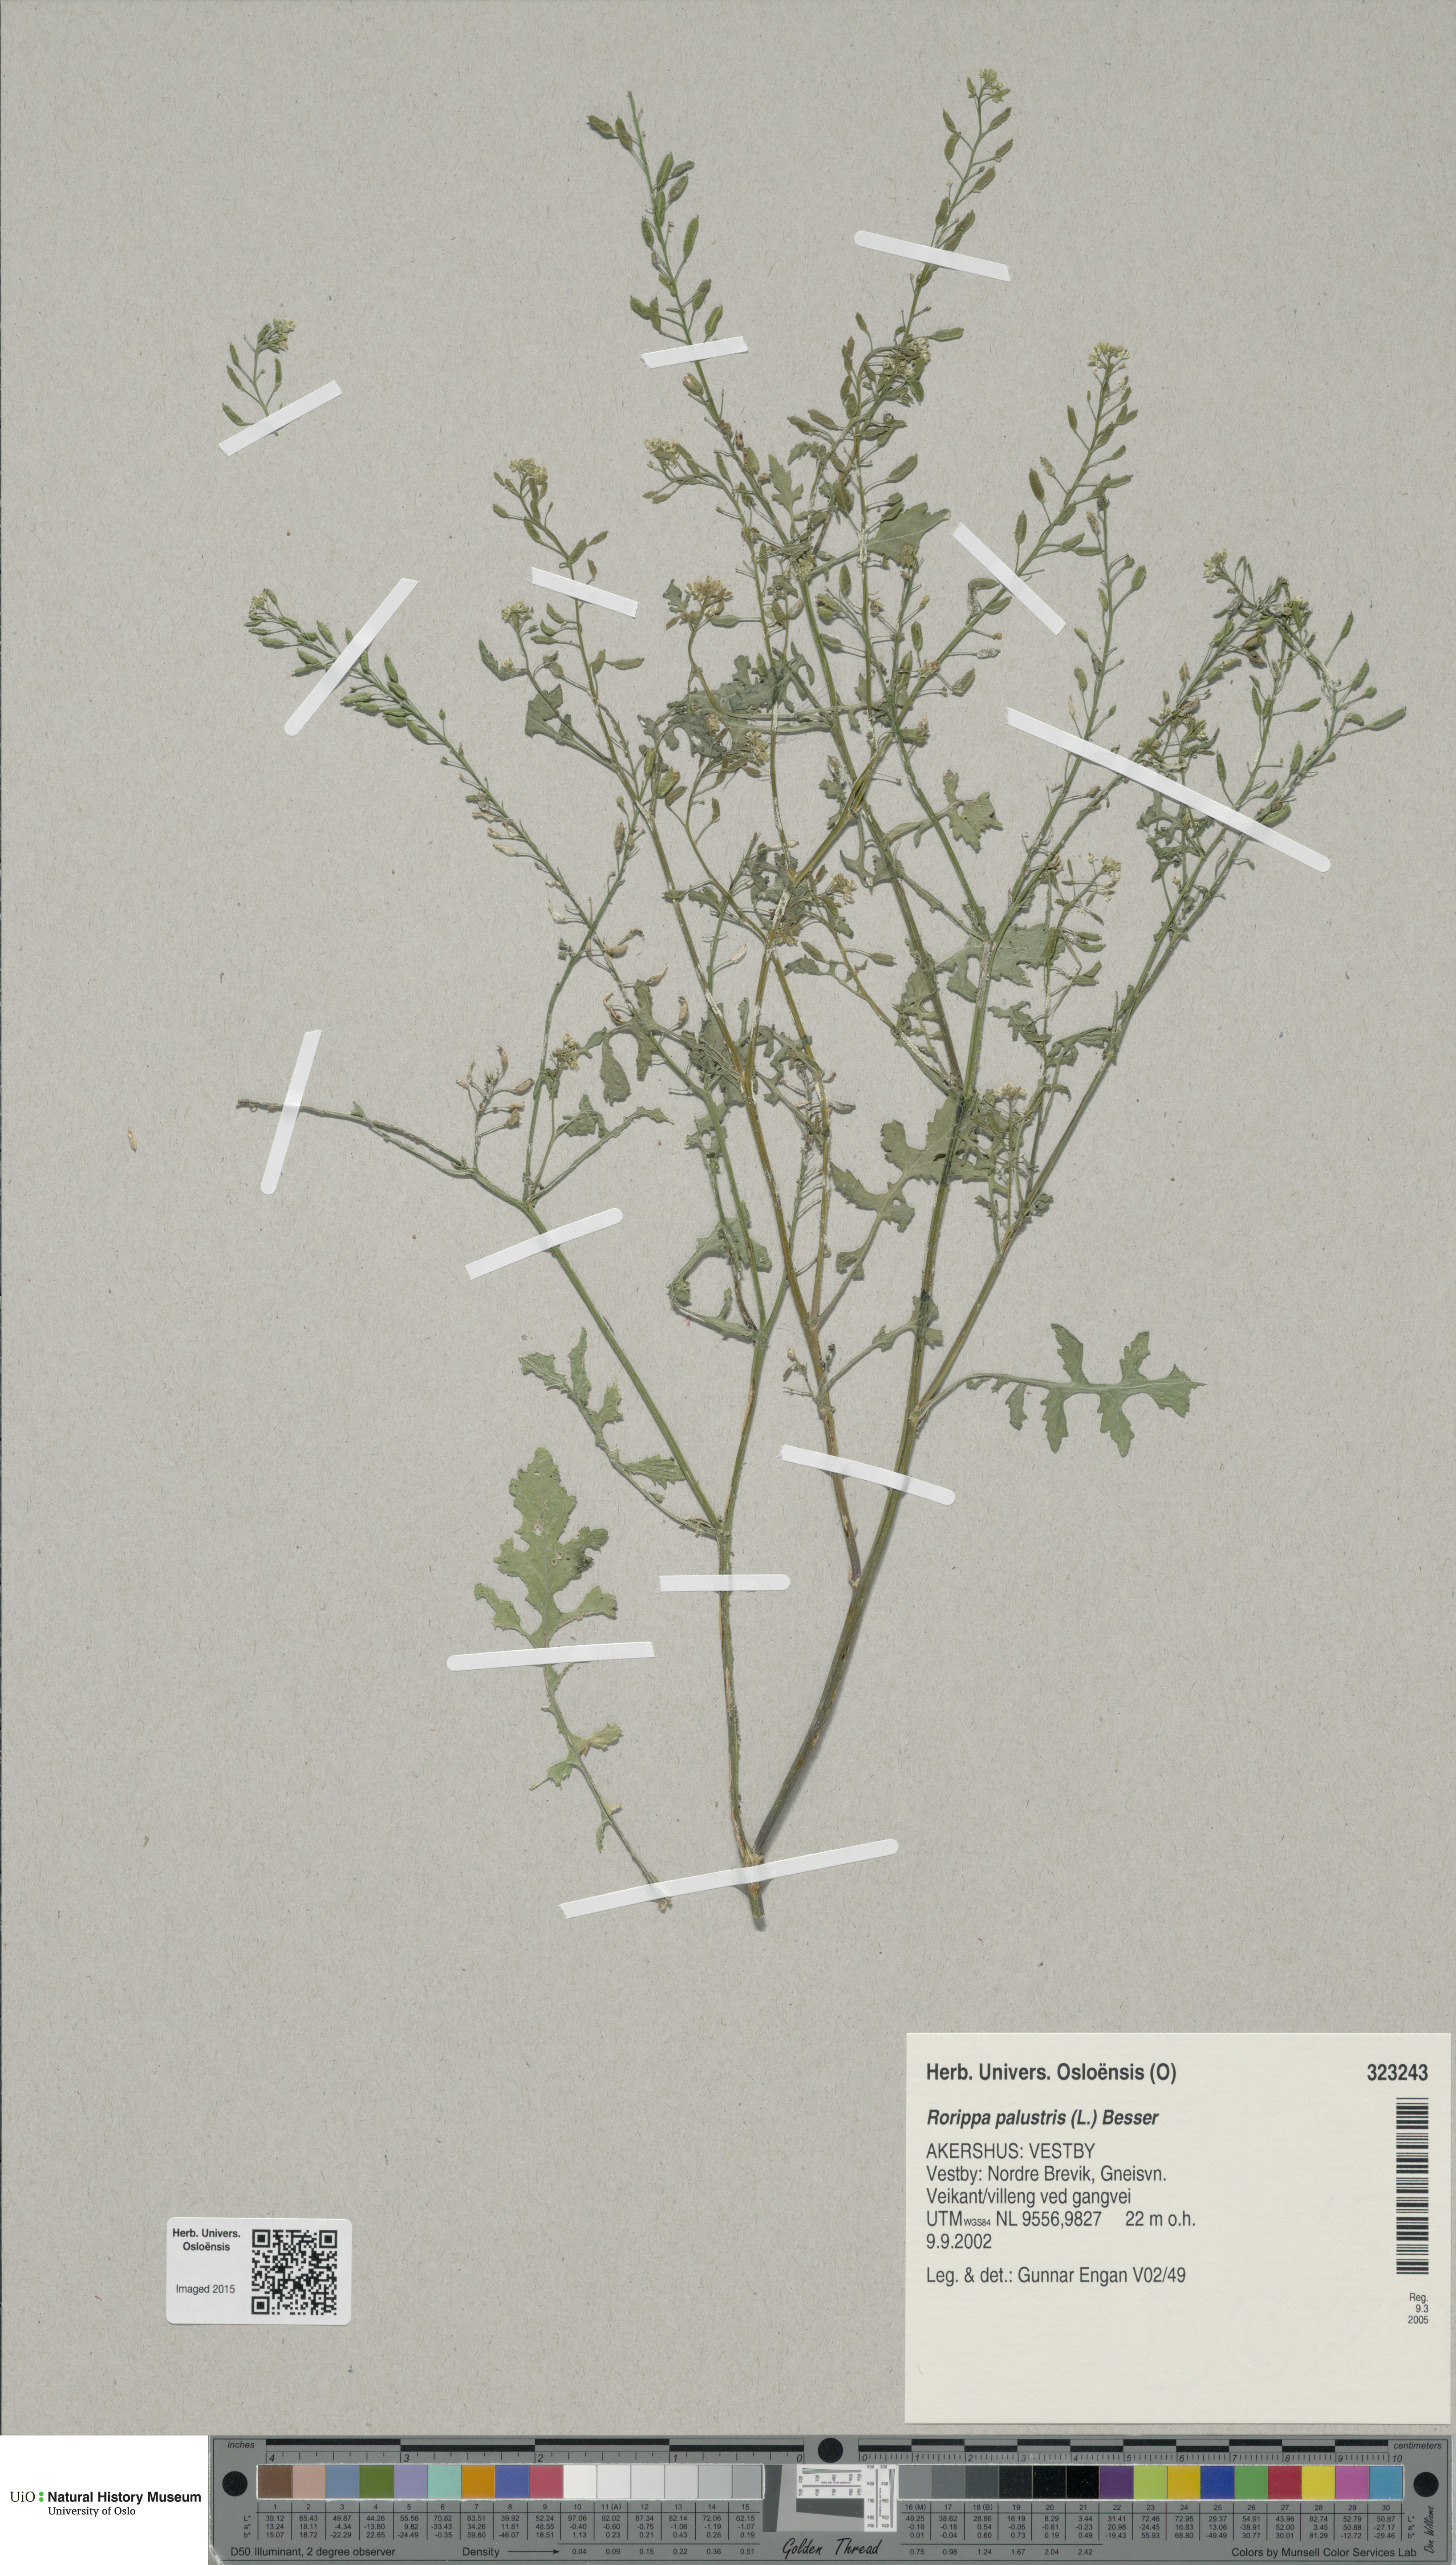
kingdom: Plantae
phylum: Tracheophyta
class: Magnoliopsida
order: Brassicales
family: Brassicaceae
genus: Rorippa
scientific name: Rorippa palustris
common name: Marsh yellow-cress
